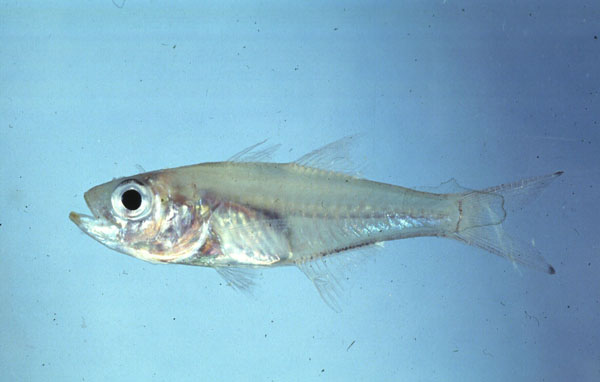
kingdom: Animalia
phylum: Chordata
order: Perciformes
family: Apogonidae
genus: Rhabdamia
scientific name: Rhabdamia gracilis
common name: Luminous cardinalfish
